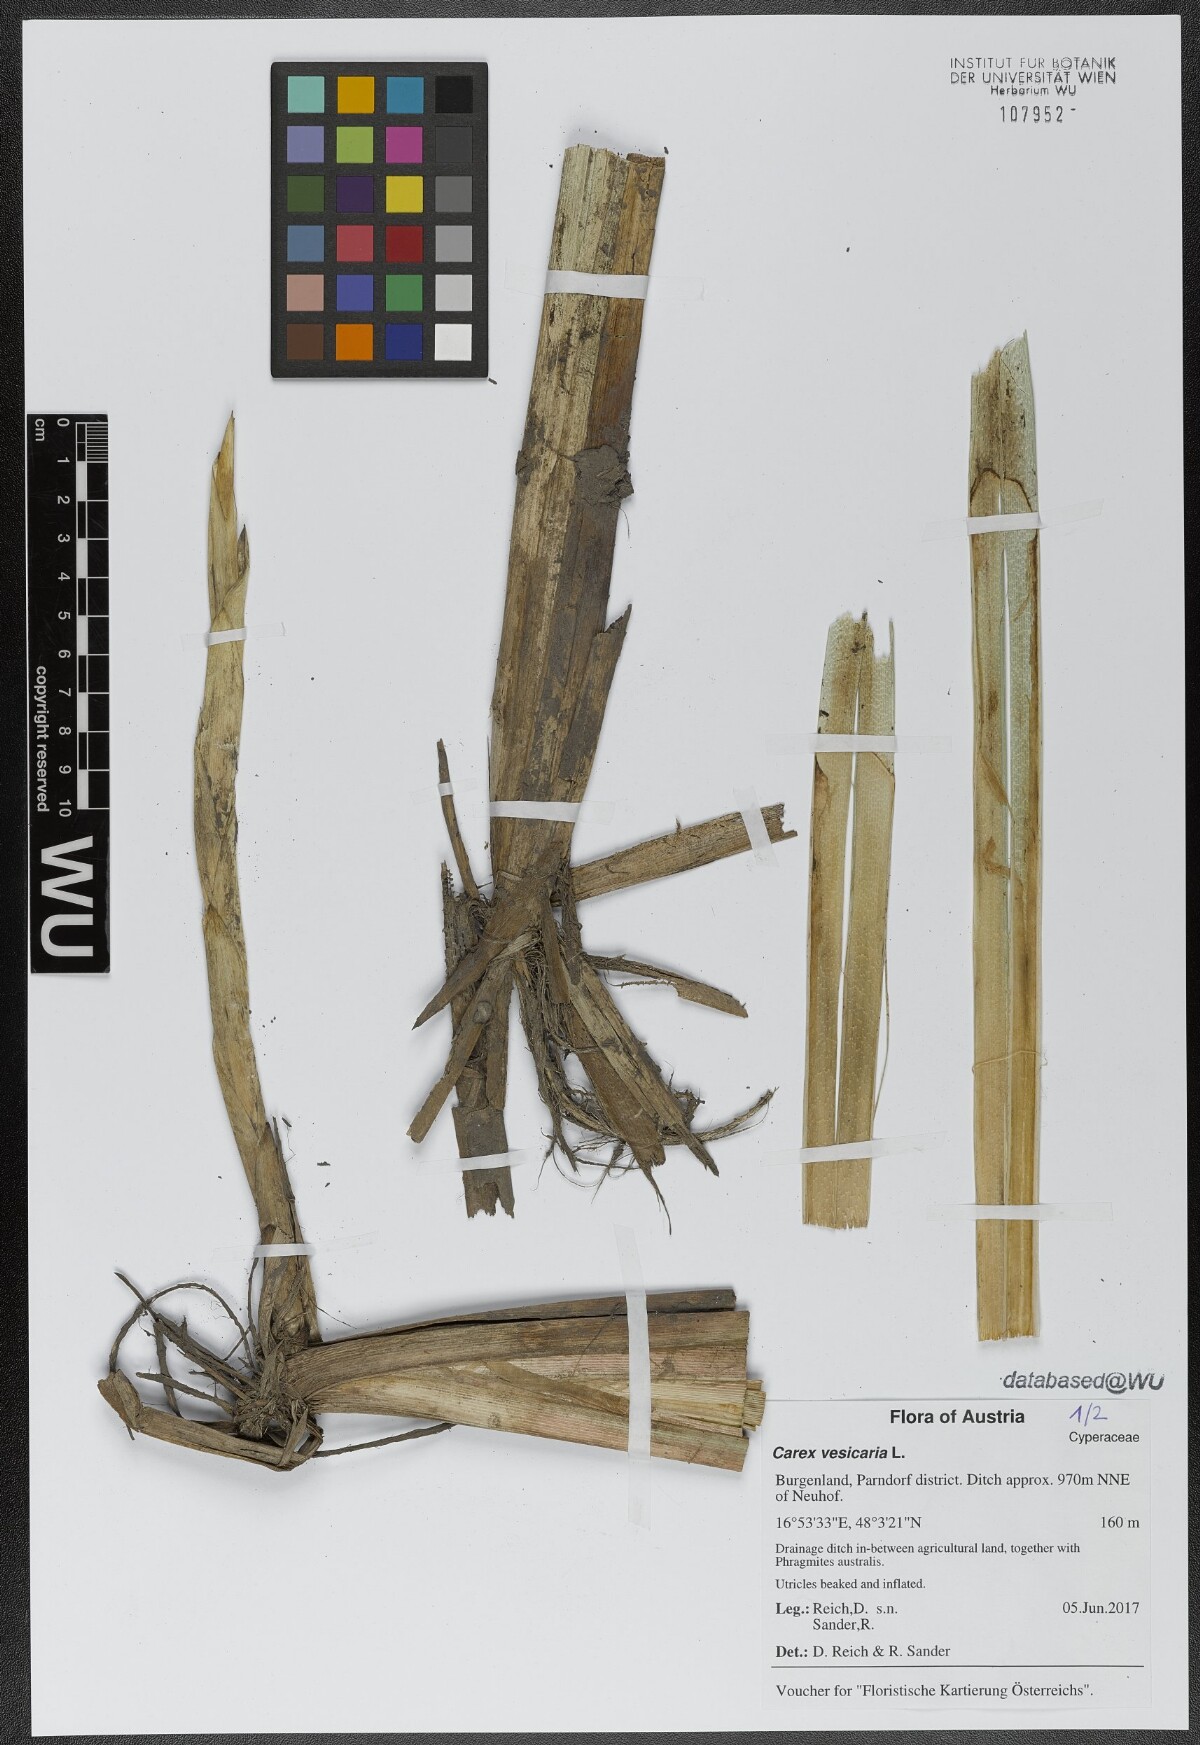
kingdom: Plantae
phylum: Tracheophyta
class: Liliopsida
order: Poales
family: Cyperaceae
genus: Carex
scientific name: Carex vesicaria
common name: Bladder-sedge
